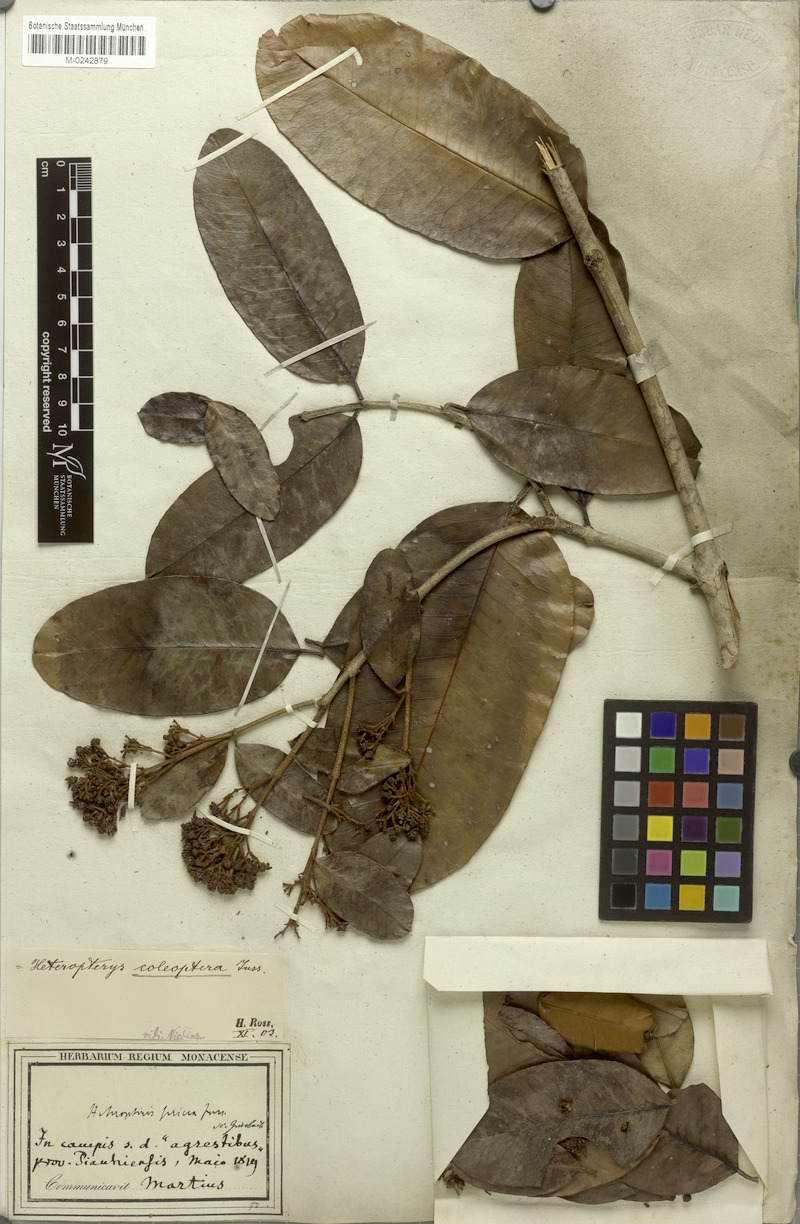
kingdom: Plantae
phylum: Tracheophyta
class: Magnoliopsida
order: Malpighiales
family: Malpighiaceae
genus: Heteropterys
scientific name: Heteropterys coleoptera
